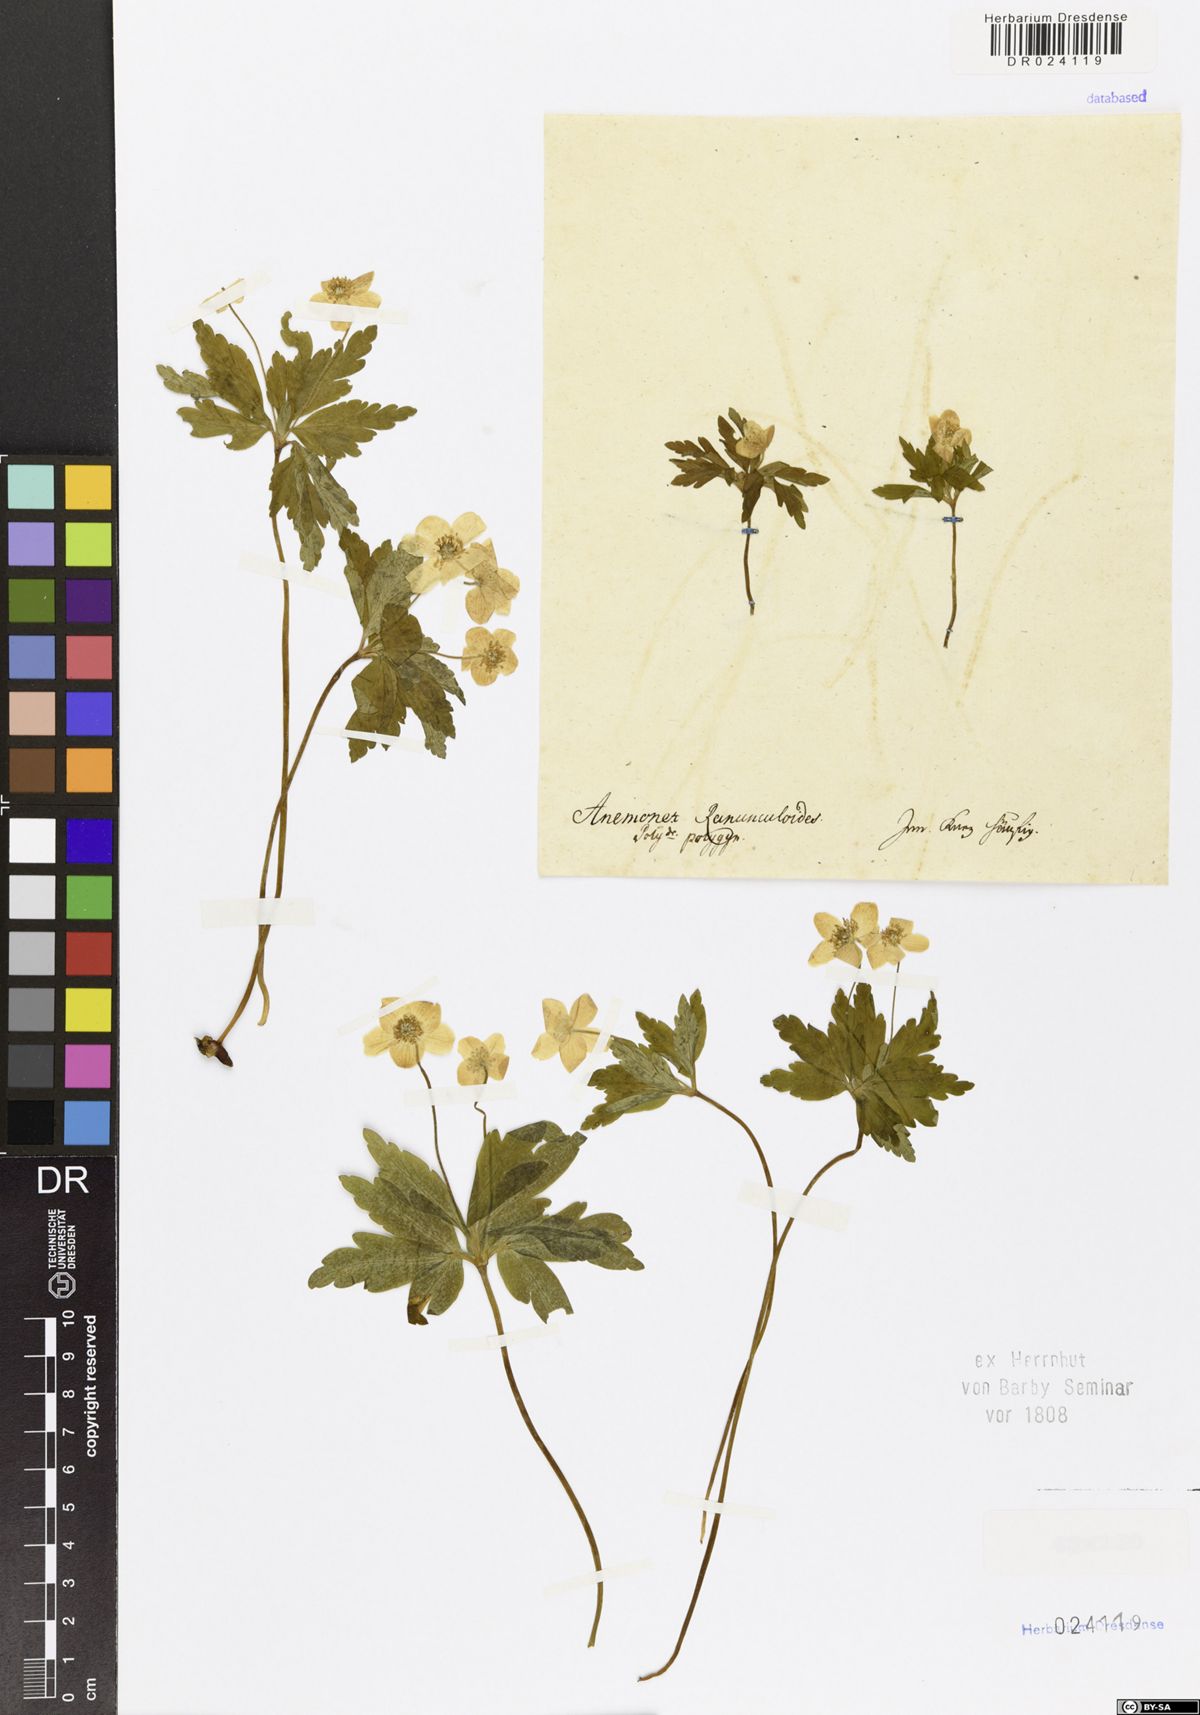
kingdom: Plantae
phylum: Tracheophyta
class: Magnoliopsida
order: Ranunculales
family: Ranunculaceae
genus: Anemone
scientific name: Anemone ranunculoides
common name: Yellow anemone
